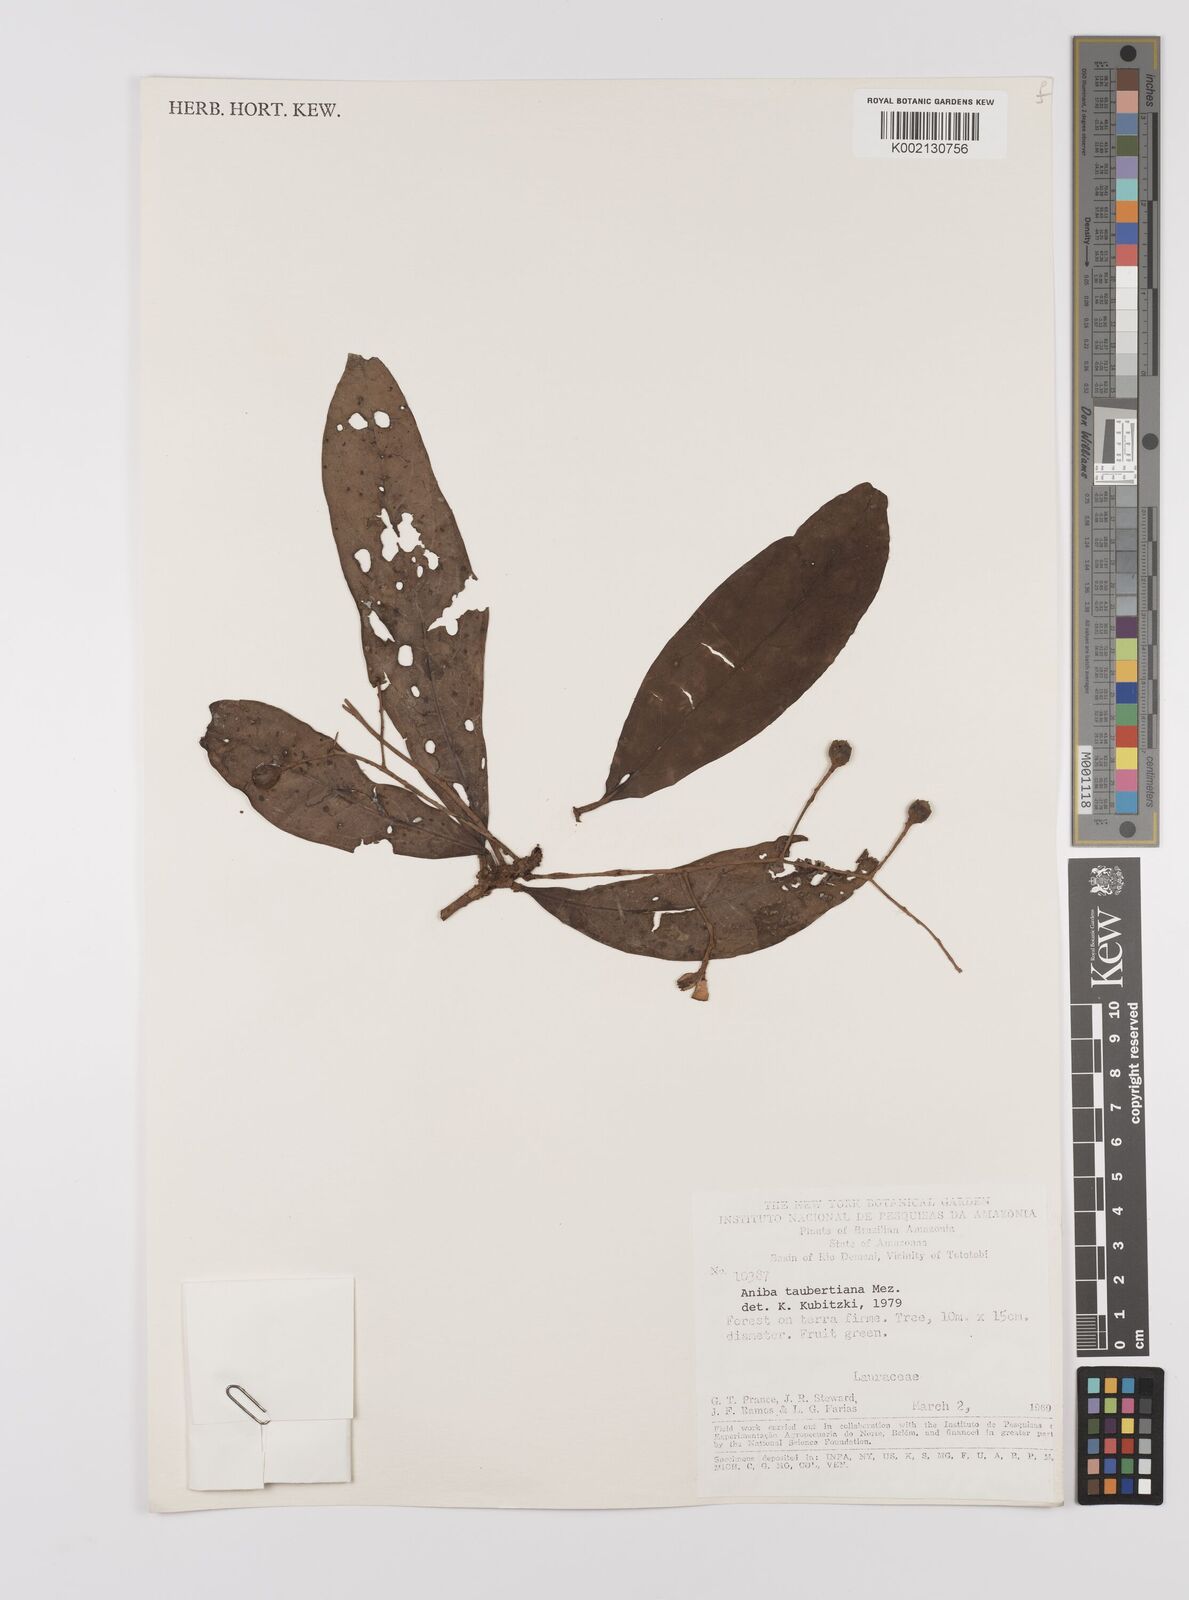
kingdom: Plantae
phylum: Tracheophyta
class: Magnoliopsida
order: Laurales
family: Lauraceae
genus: Aniba
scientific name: Aniba taubertiana
